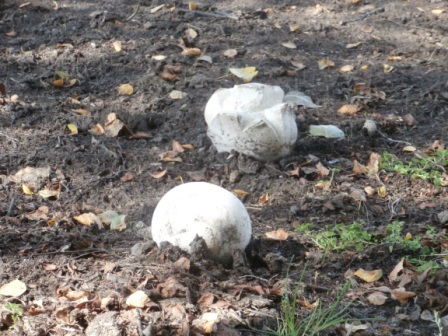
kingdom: Fungi
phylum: Basidiomycota
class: Agaricomycetes
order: Agaricales
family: Lycoperdaceae
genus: Calvatia
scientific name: Calvatia gigantea
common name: kæmpestøvbold
